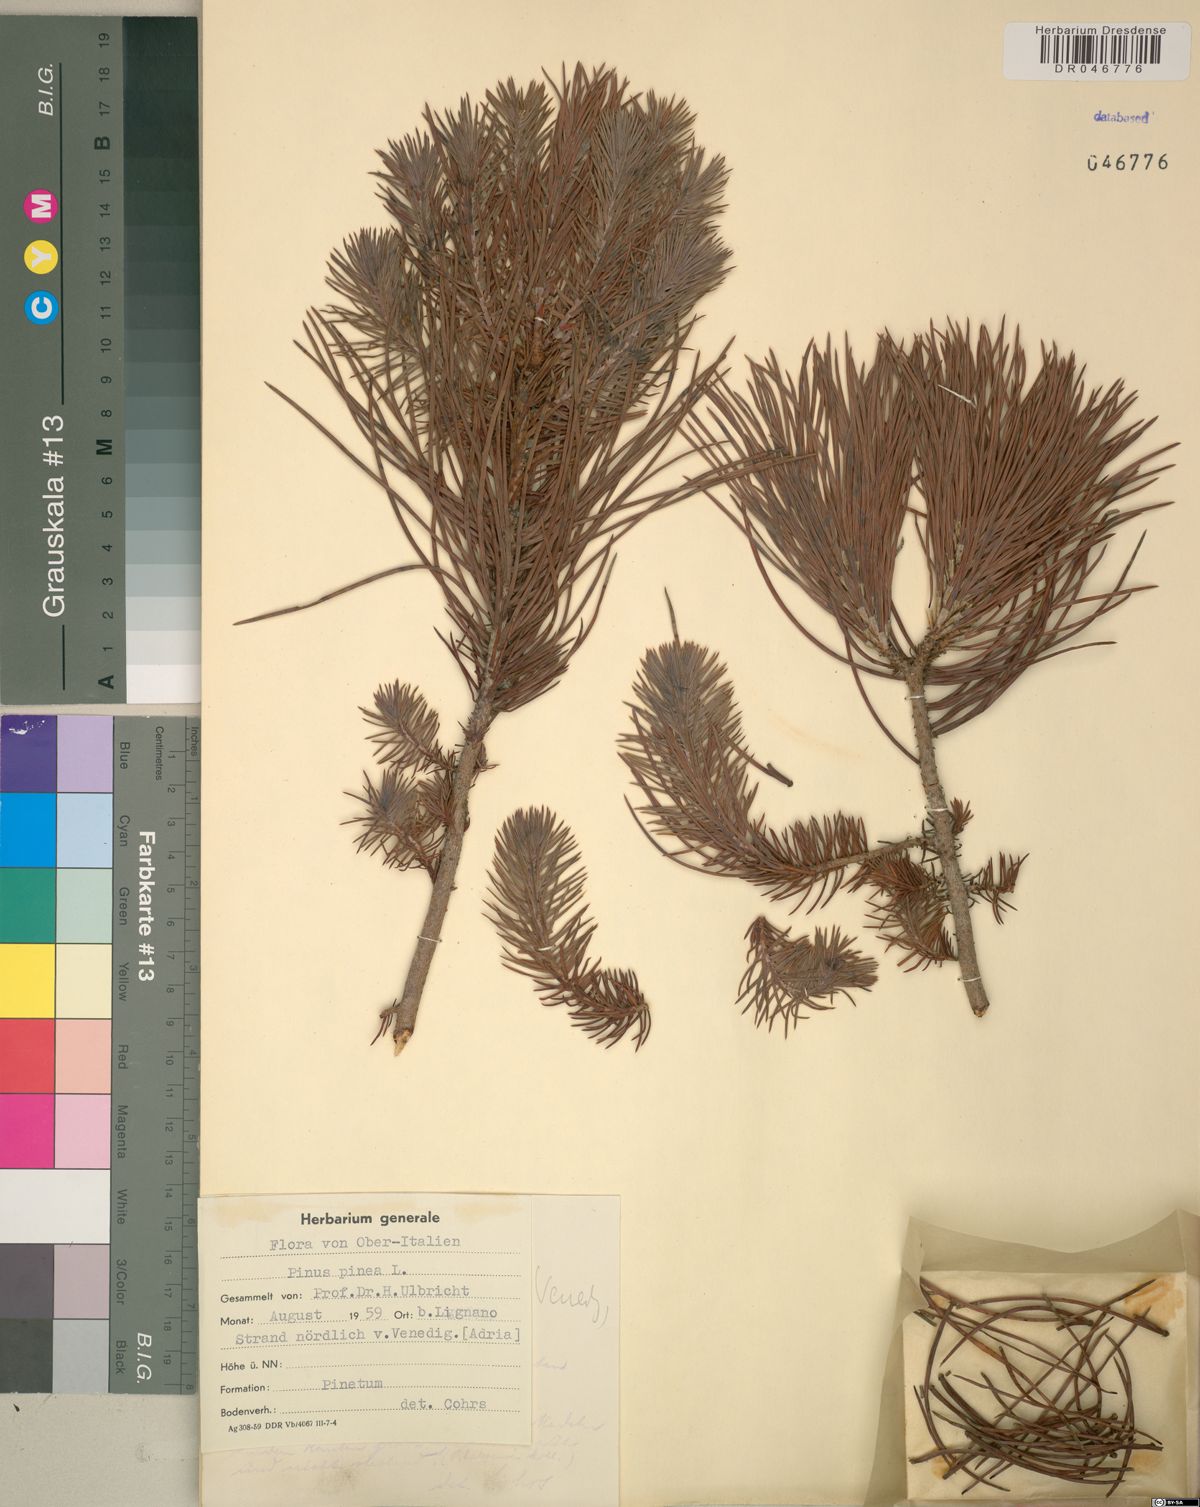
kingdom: Plantae
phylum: Tracheophyta
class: Pinopsida
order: Pinales
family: Pinaceae
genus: Pinus
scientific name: Pinus pinea
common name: Italian stone pine
